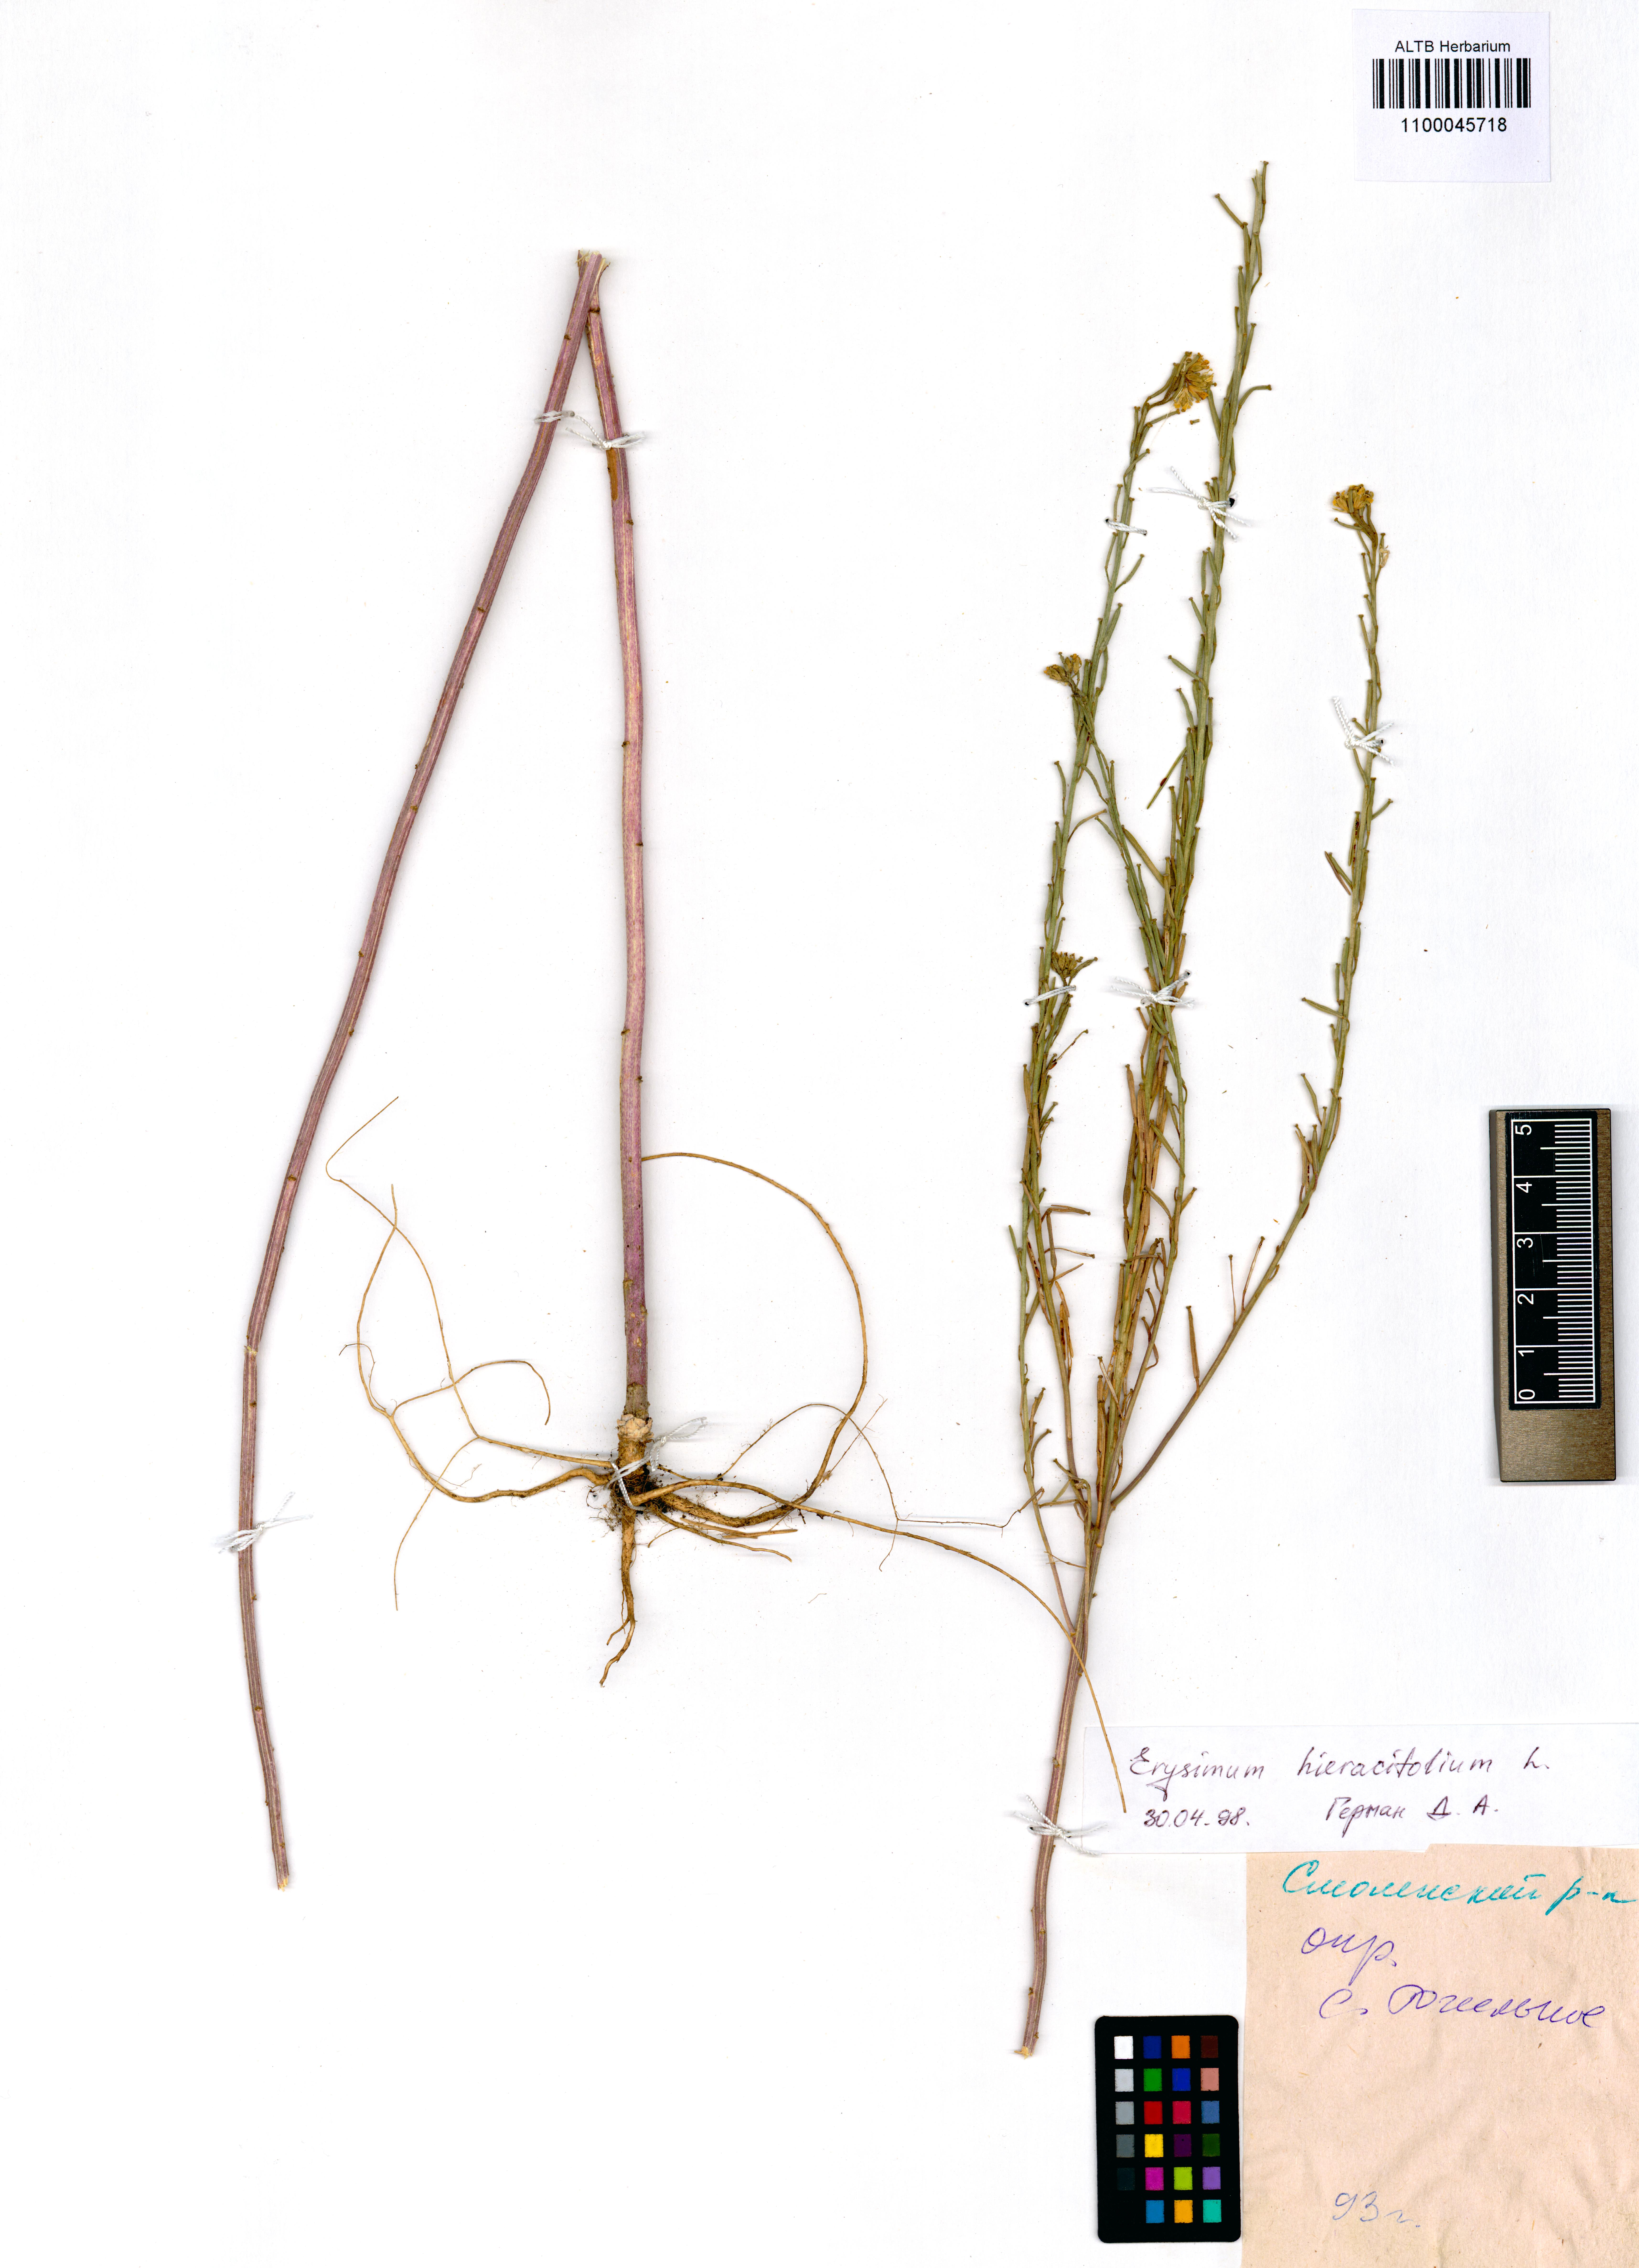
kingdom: Plantae
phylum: Tracheophyta
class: Magnoliopsida
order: Brassicales
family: Brassicaceae
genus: Erysimum
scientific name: Erysimum hieraciifolium
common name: European wallflower
